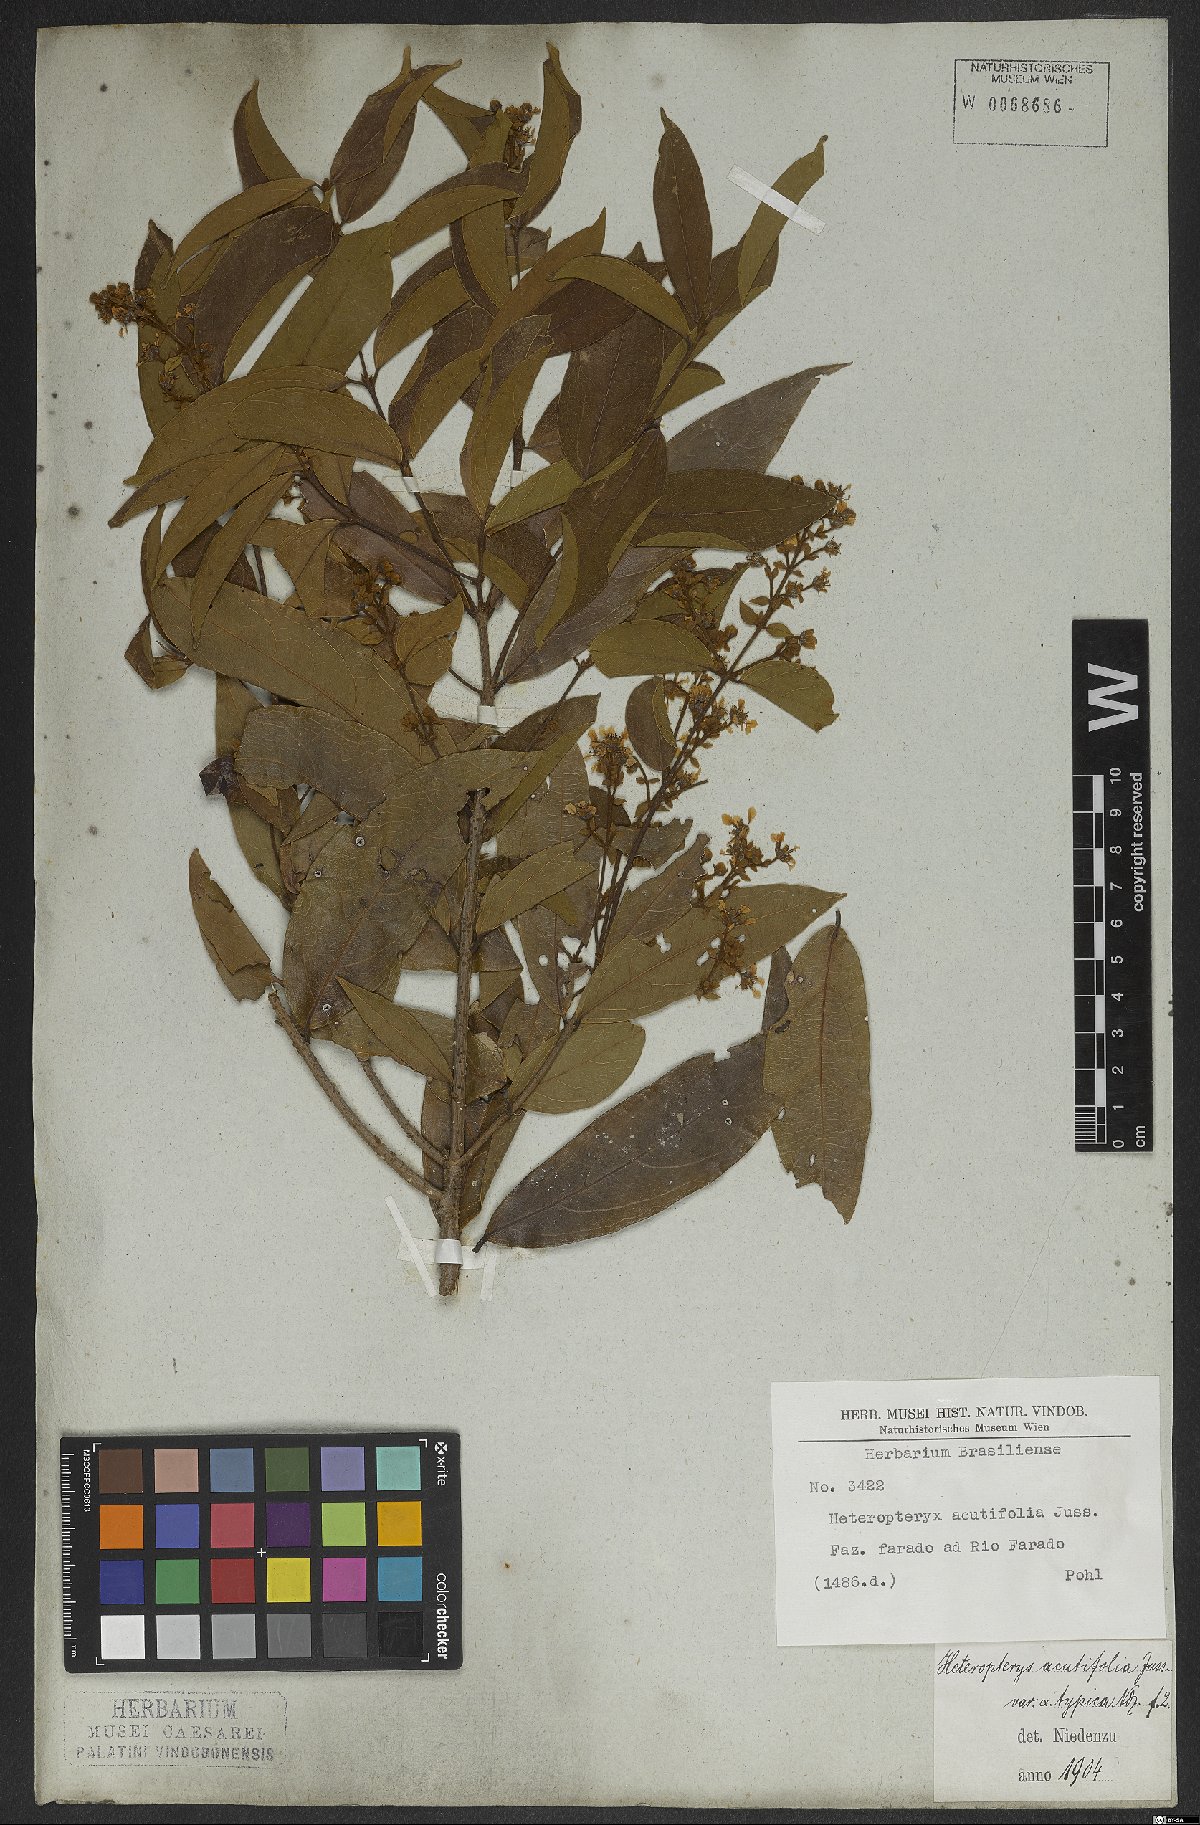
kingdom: Plantae
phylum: Tracheophyta
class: Magnoliopsida
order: Malpighiales
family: Malpighiaceae
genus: Heteropterys
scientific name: Heteropterys orinocensis
